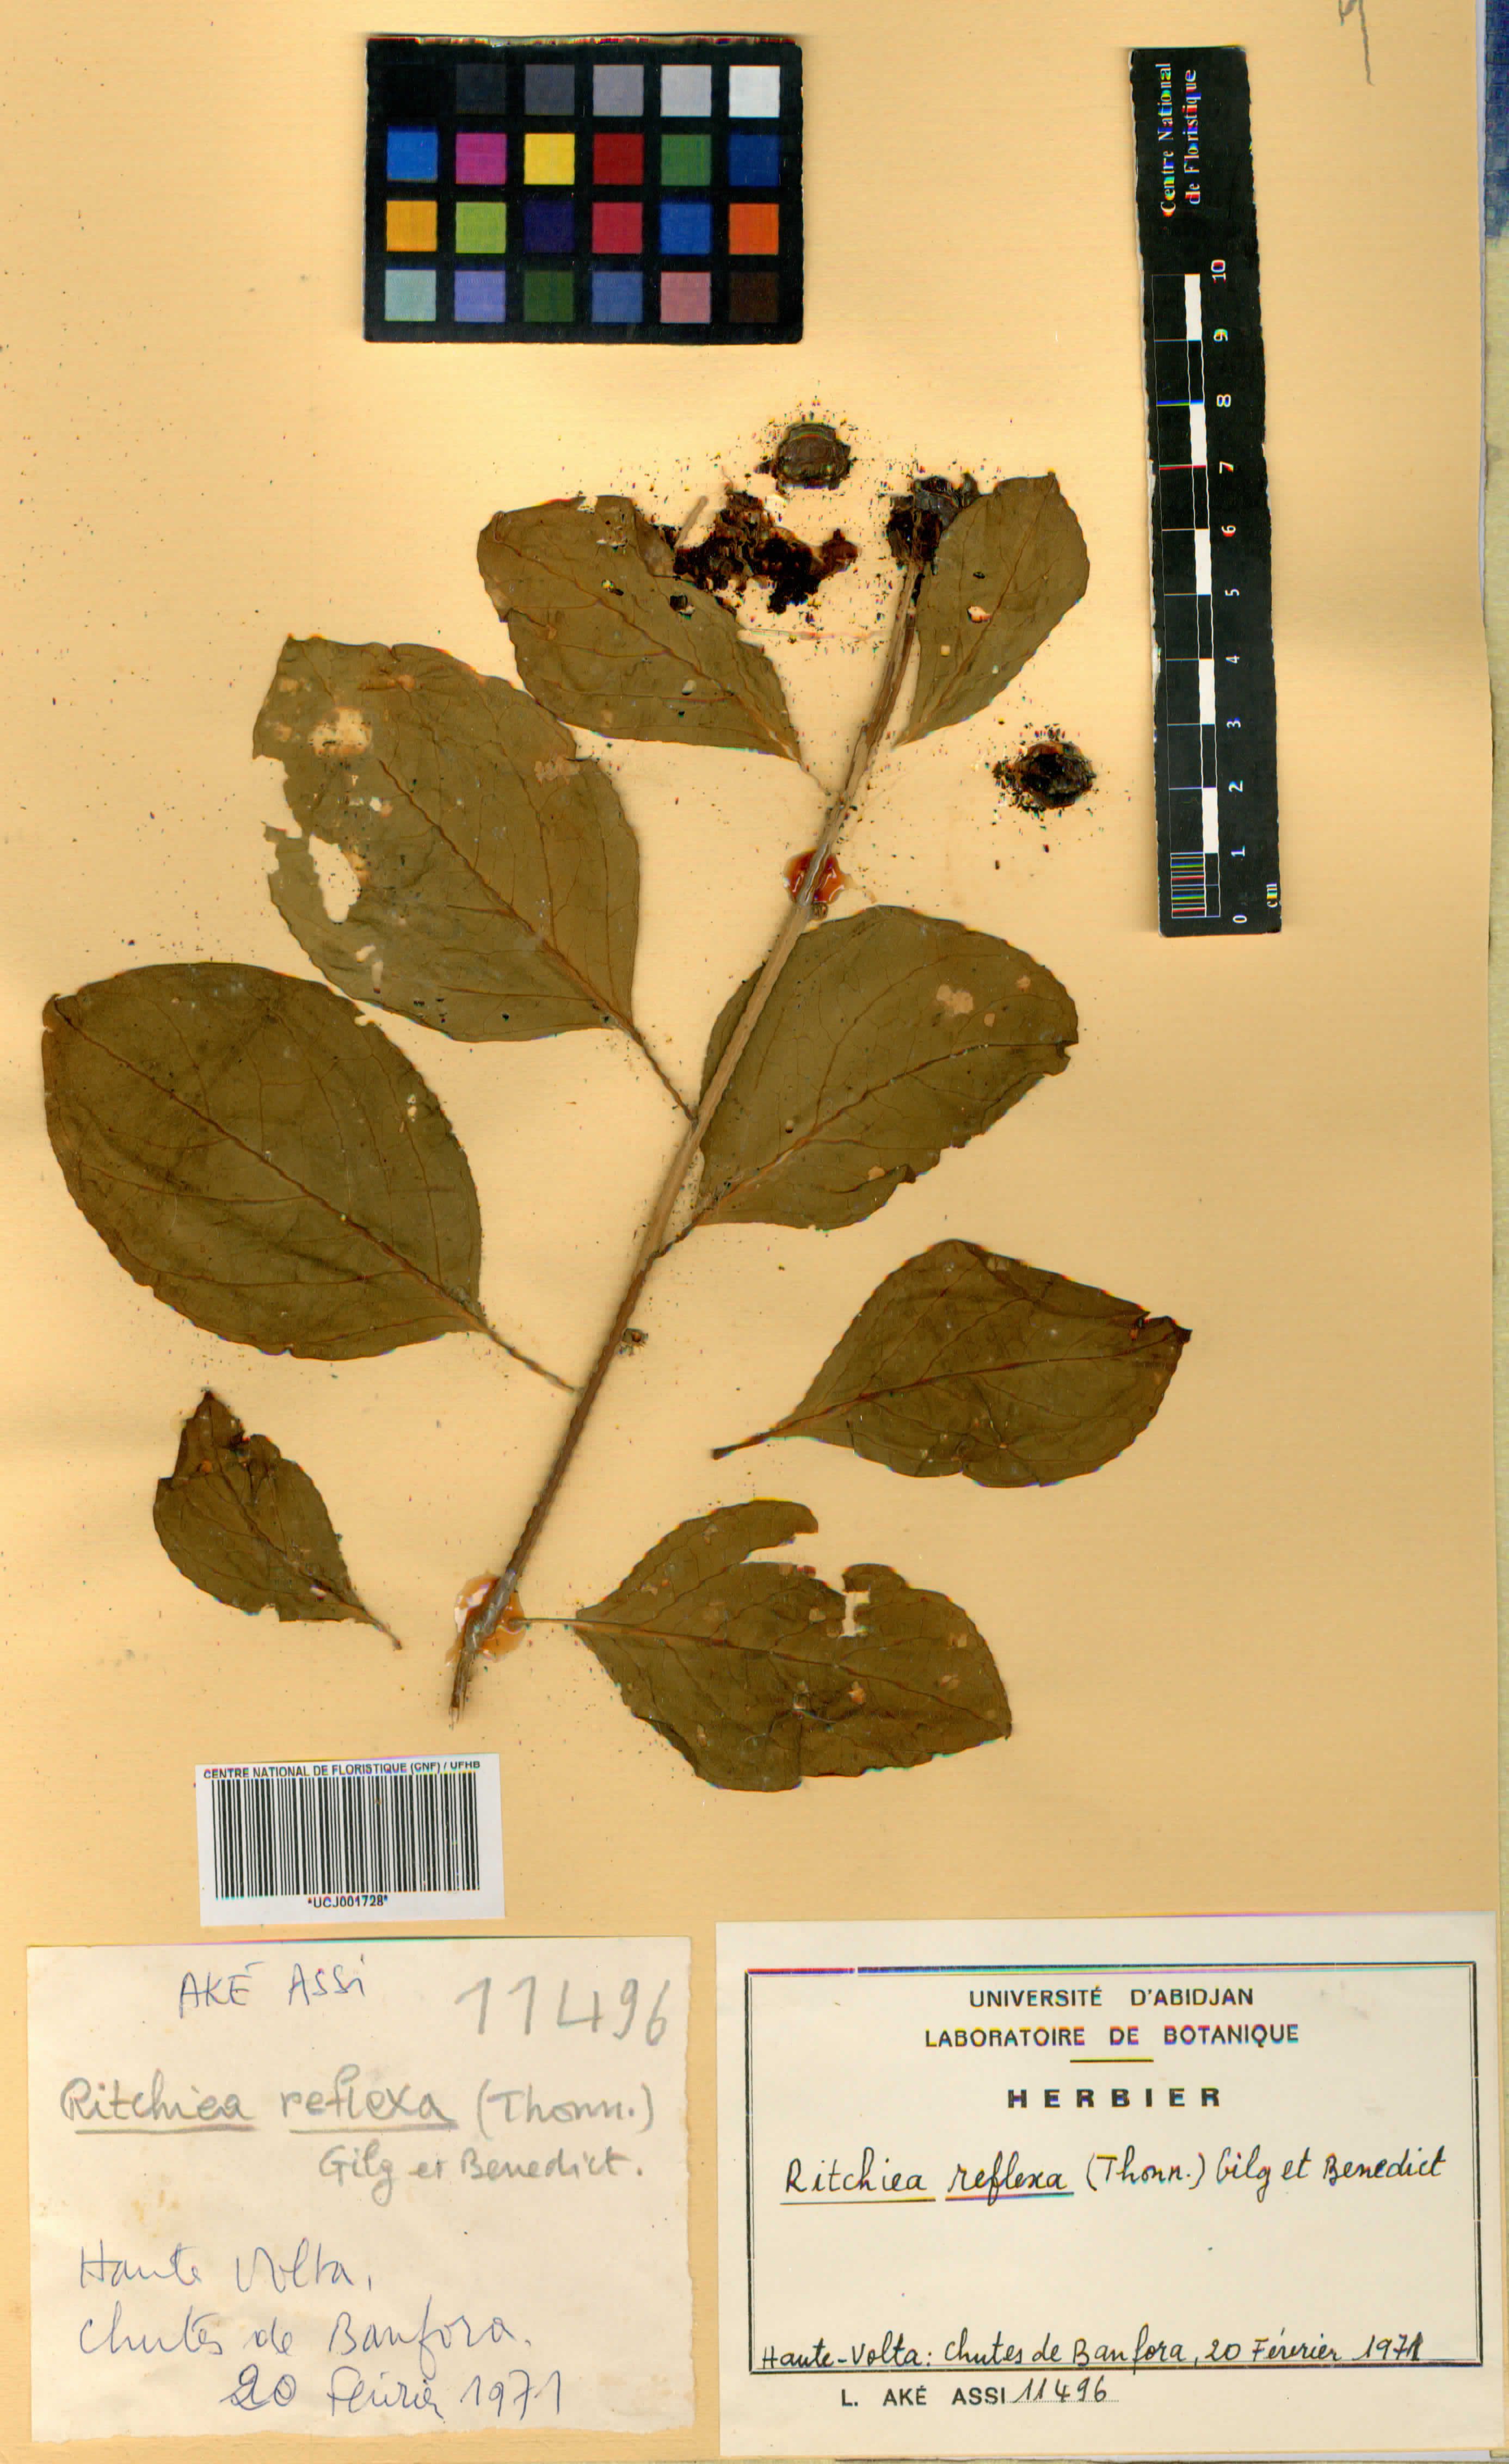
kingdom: Plantae
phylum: Tracheophyta
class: Magnoliopsida
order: Brassicales
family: Capparaceae
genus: Ritchiea
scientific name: Ritchiea reflexa
